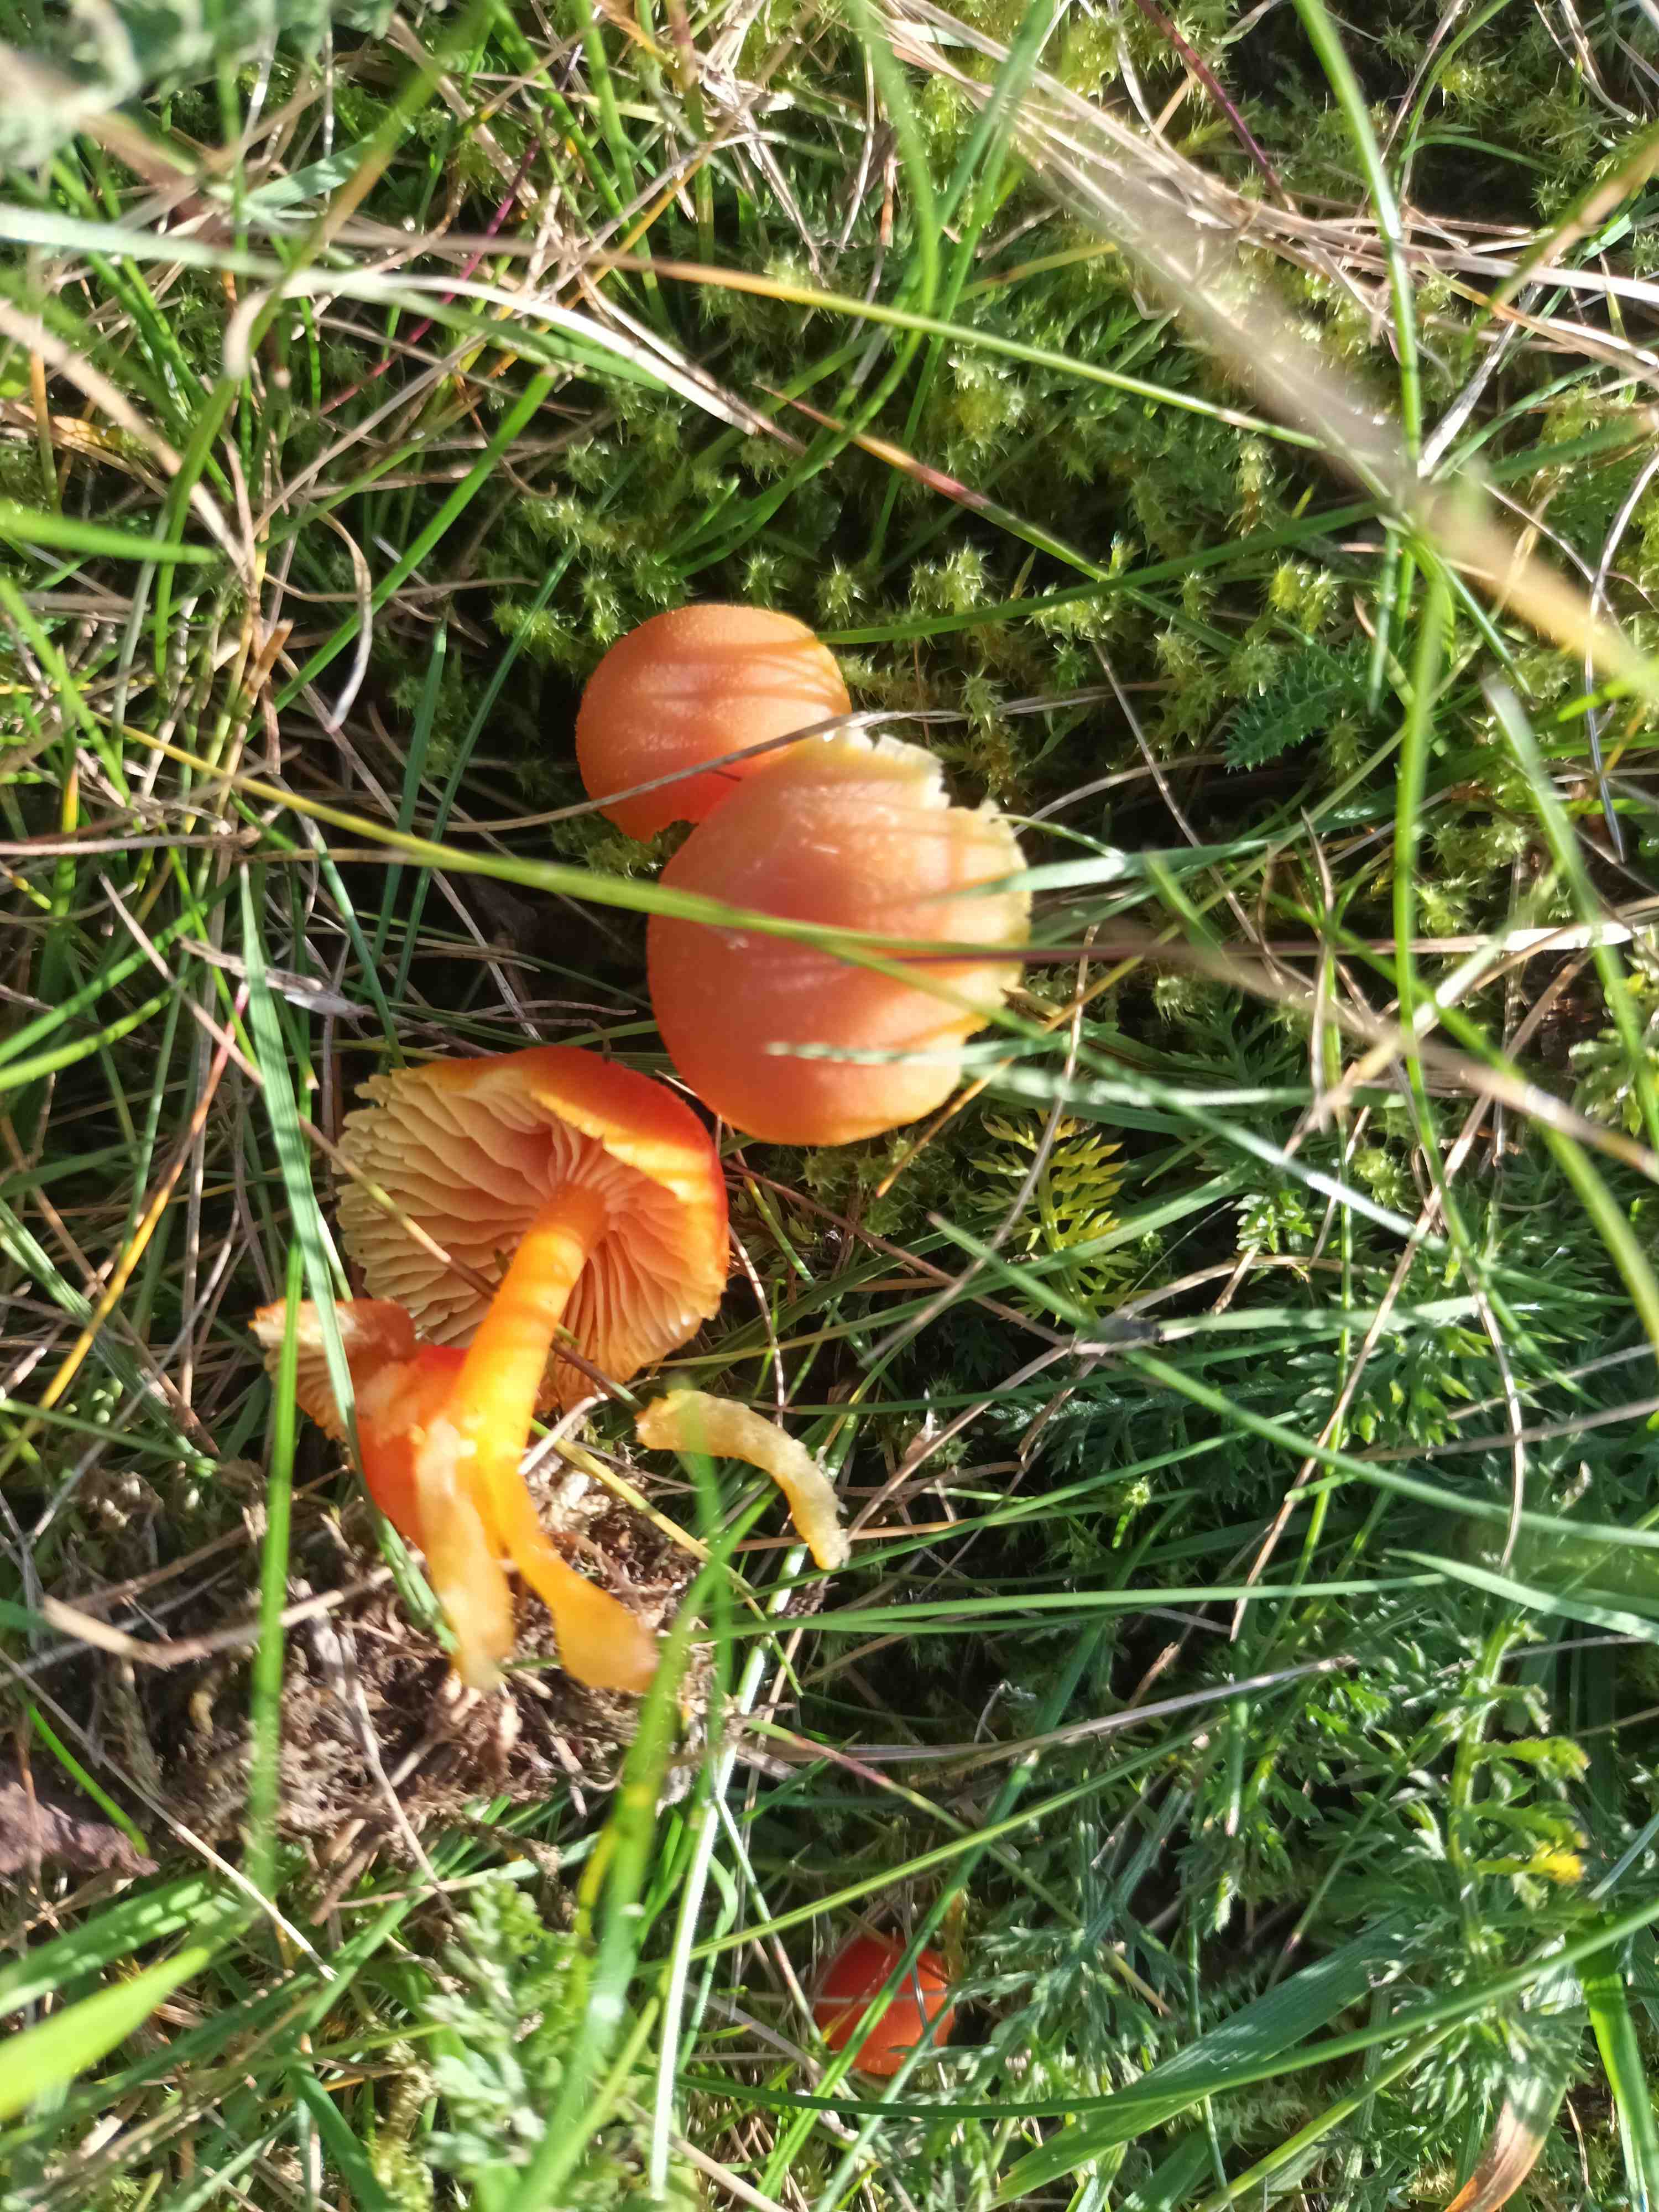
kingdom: Fungi
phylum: Basidiomycota
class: Agaricomycetes
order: Agaricales
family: Hygrophoraceae
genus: Hygrocybe
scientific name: Hygrocybe miniata
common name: mønje-vokshat
